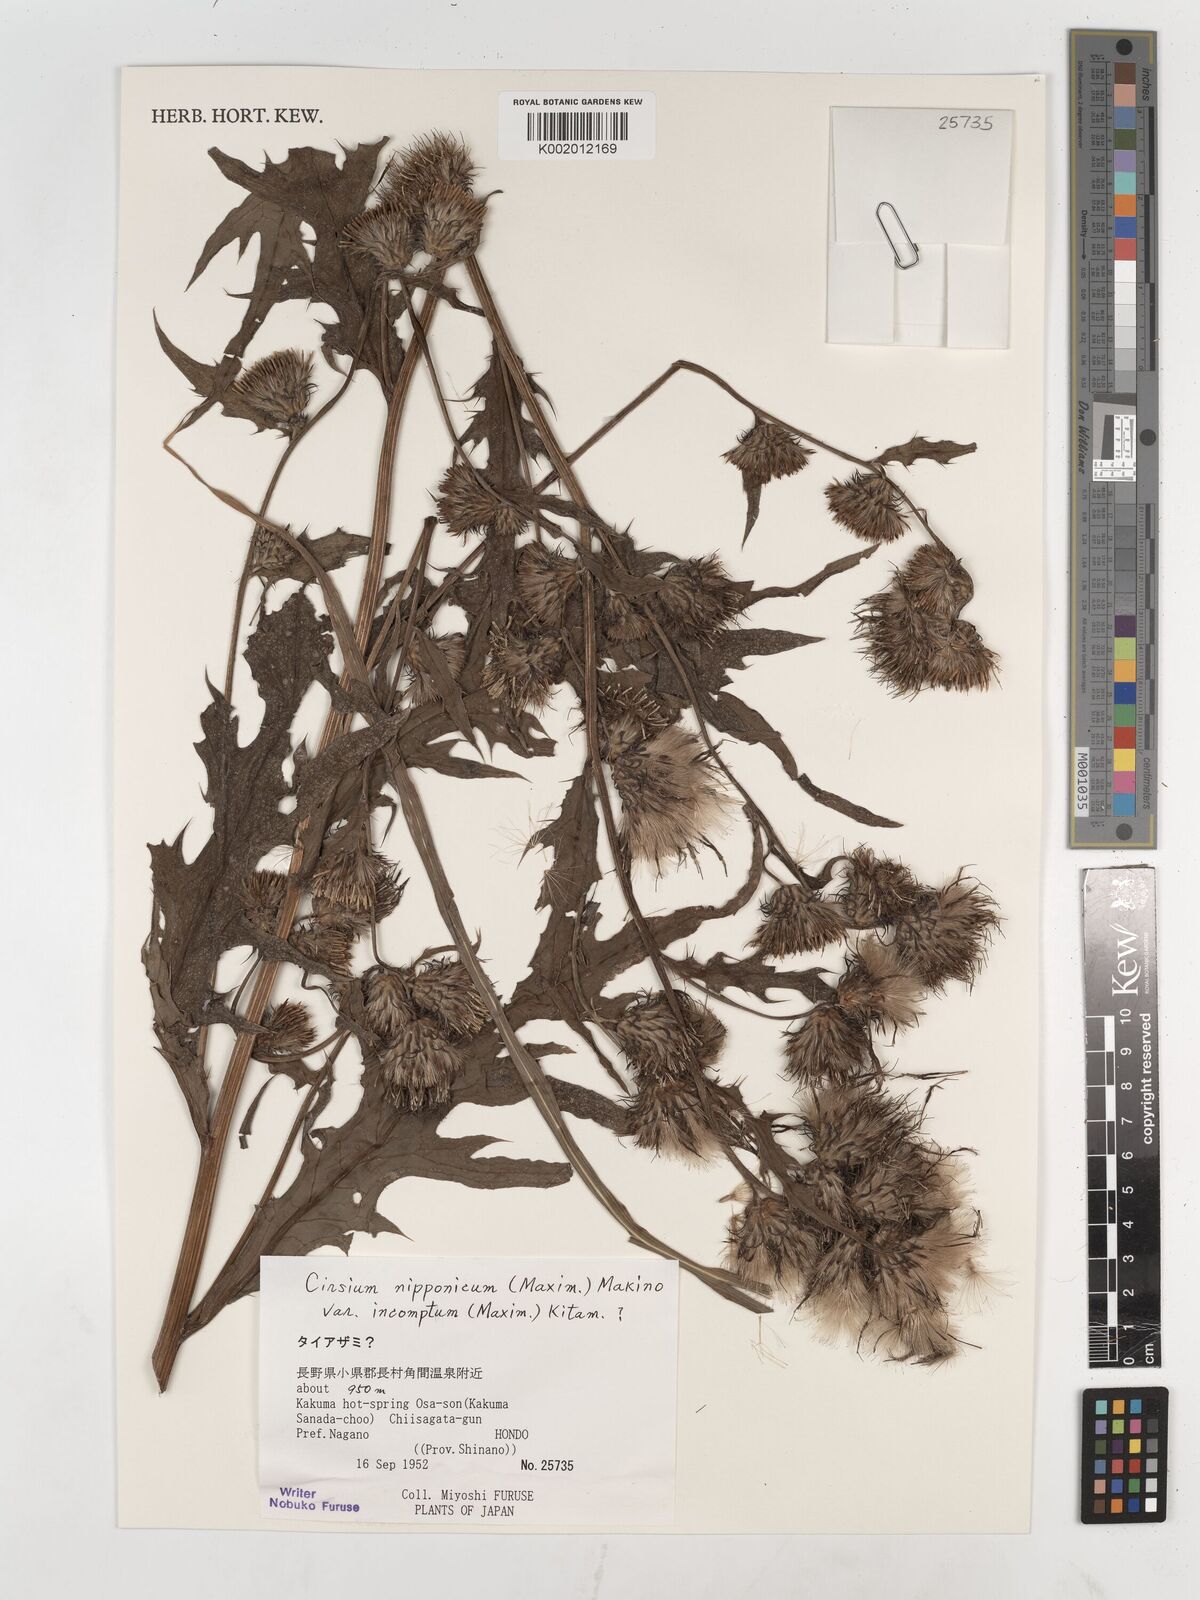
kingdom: Plantae
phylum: Tracheophyta
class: Magnoliopsida
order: Asterales
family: Asteraceae
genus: Cirsium
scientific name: Cirsium nipponicum
